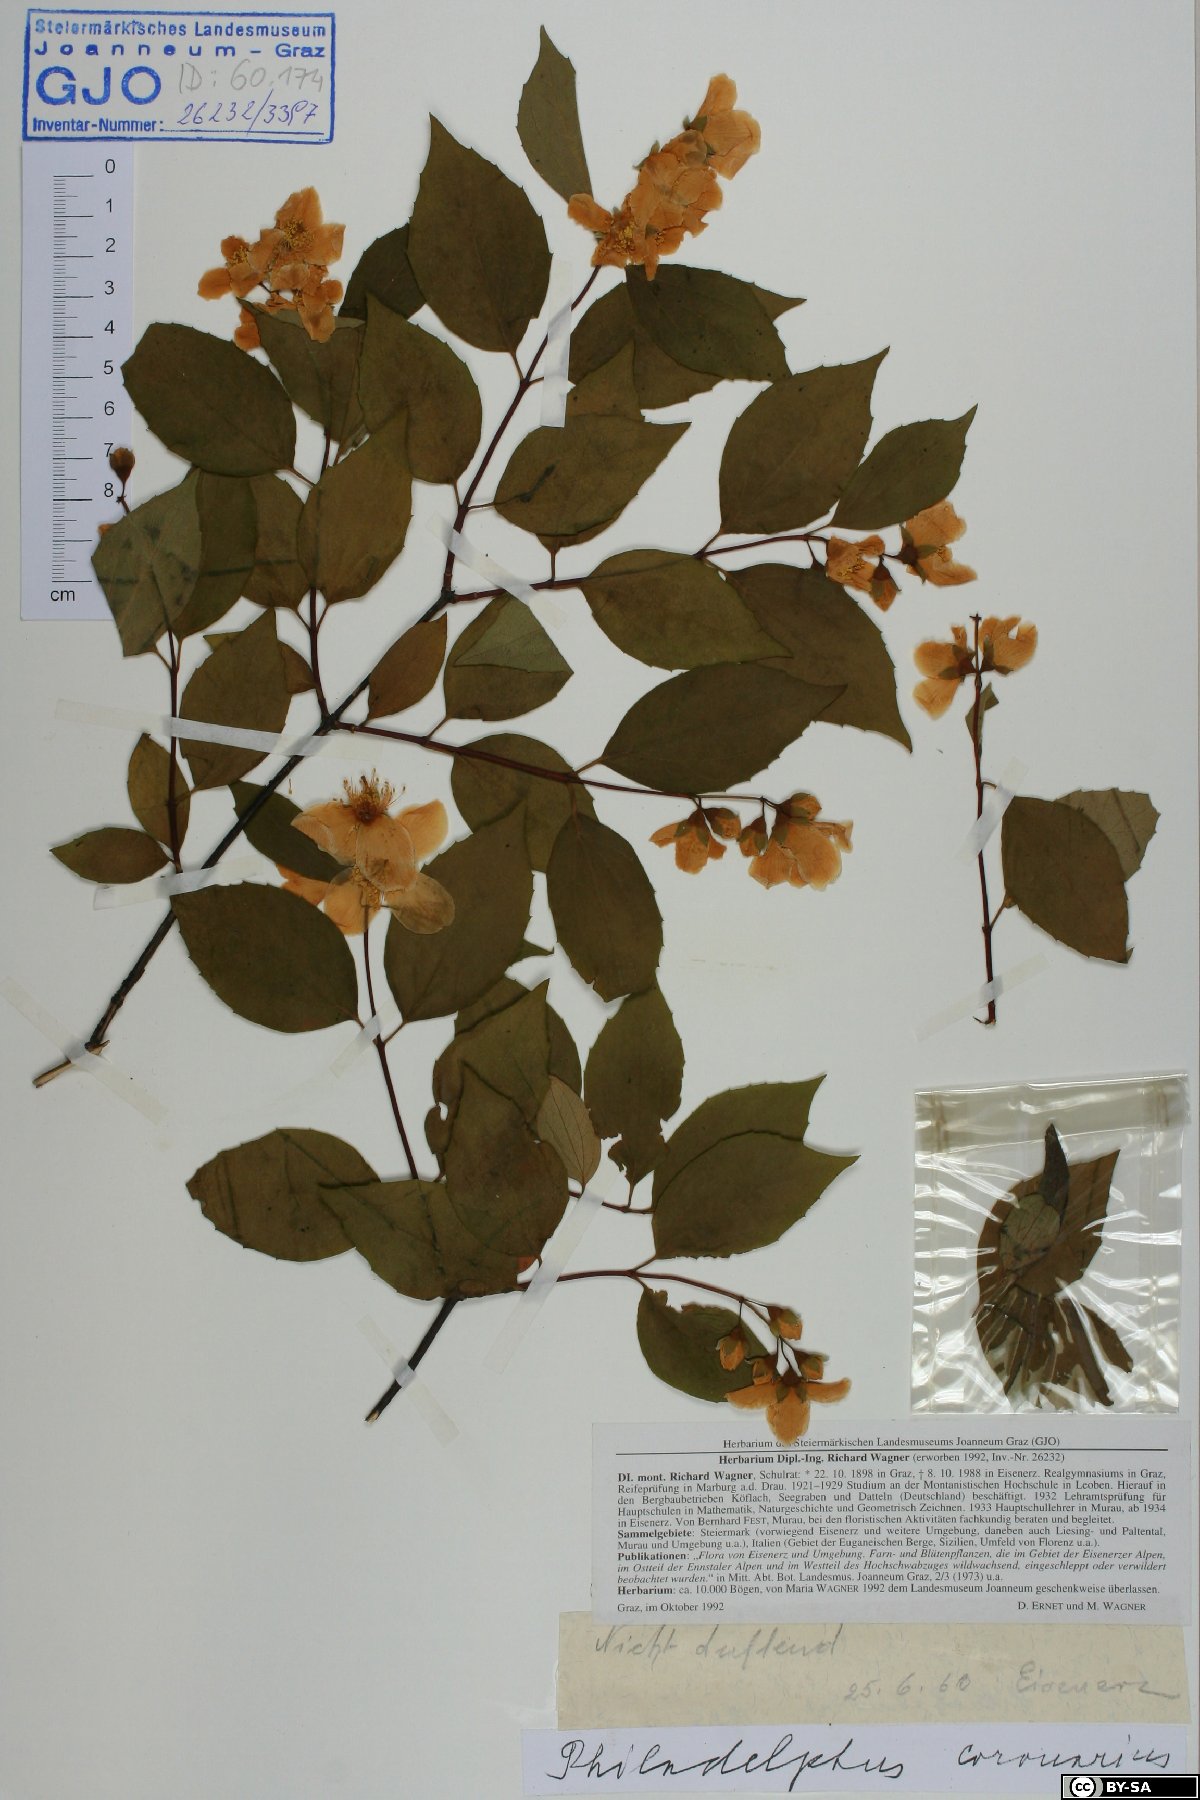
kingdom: Plantae
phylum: Tracheophyta
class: Magnoliopsida
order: Cornales
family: Hydrangeaceae
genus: Philadelphus
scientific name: Philadelphus coronarius
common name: Mock orange
